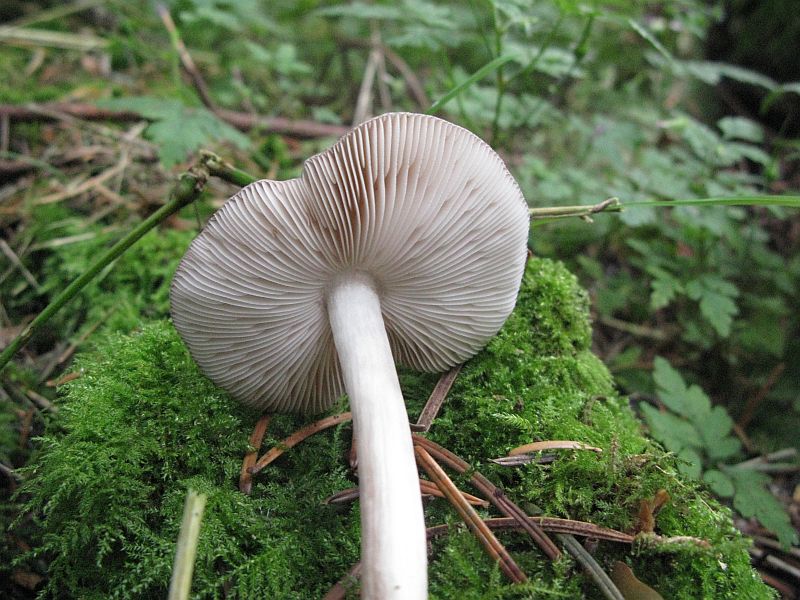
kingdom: Fungi
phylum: Basidiomycota
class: Agaricomycetes
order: Agaricales
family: Pluteaceae
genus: Pluteus
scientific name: Pluteus primus
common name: tidlig skærmhat
